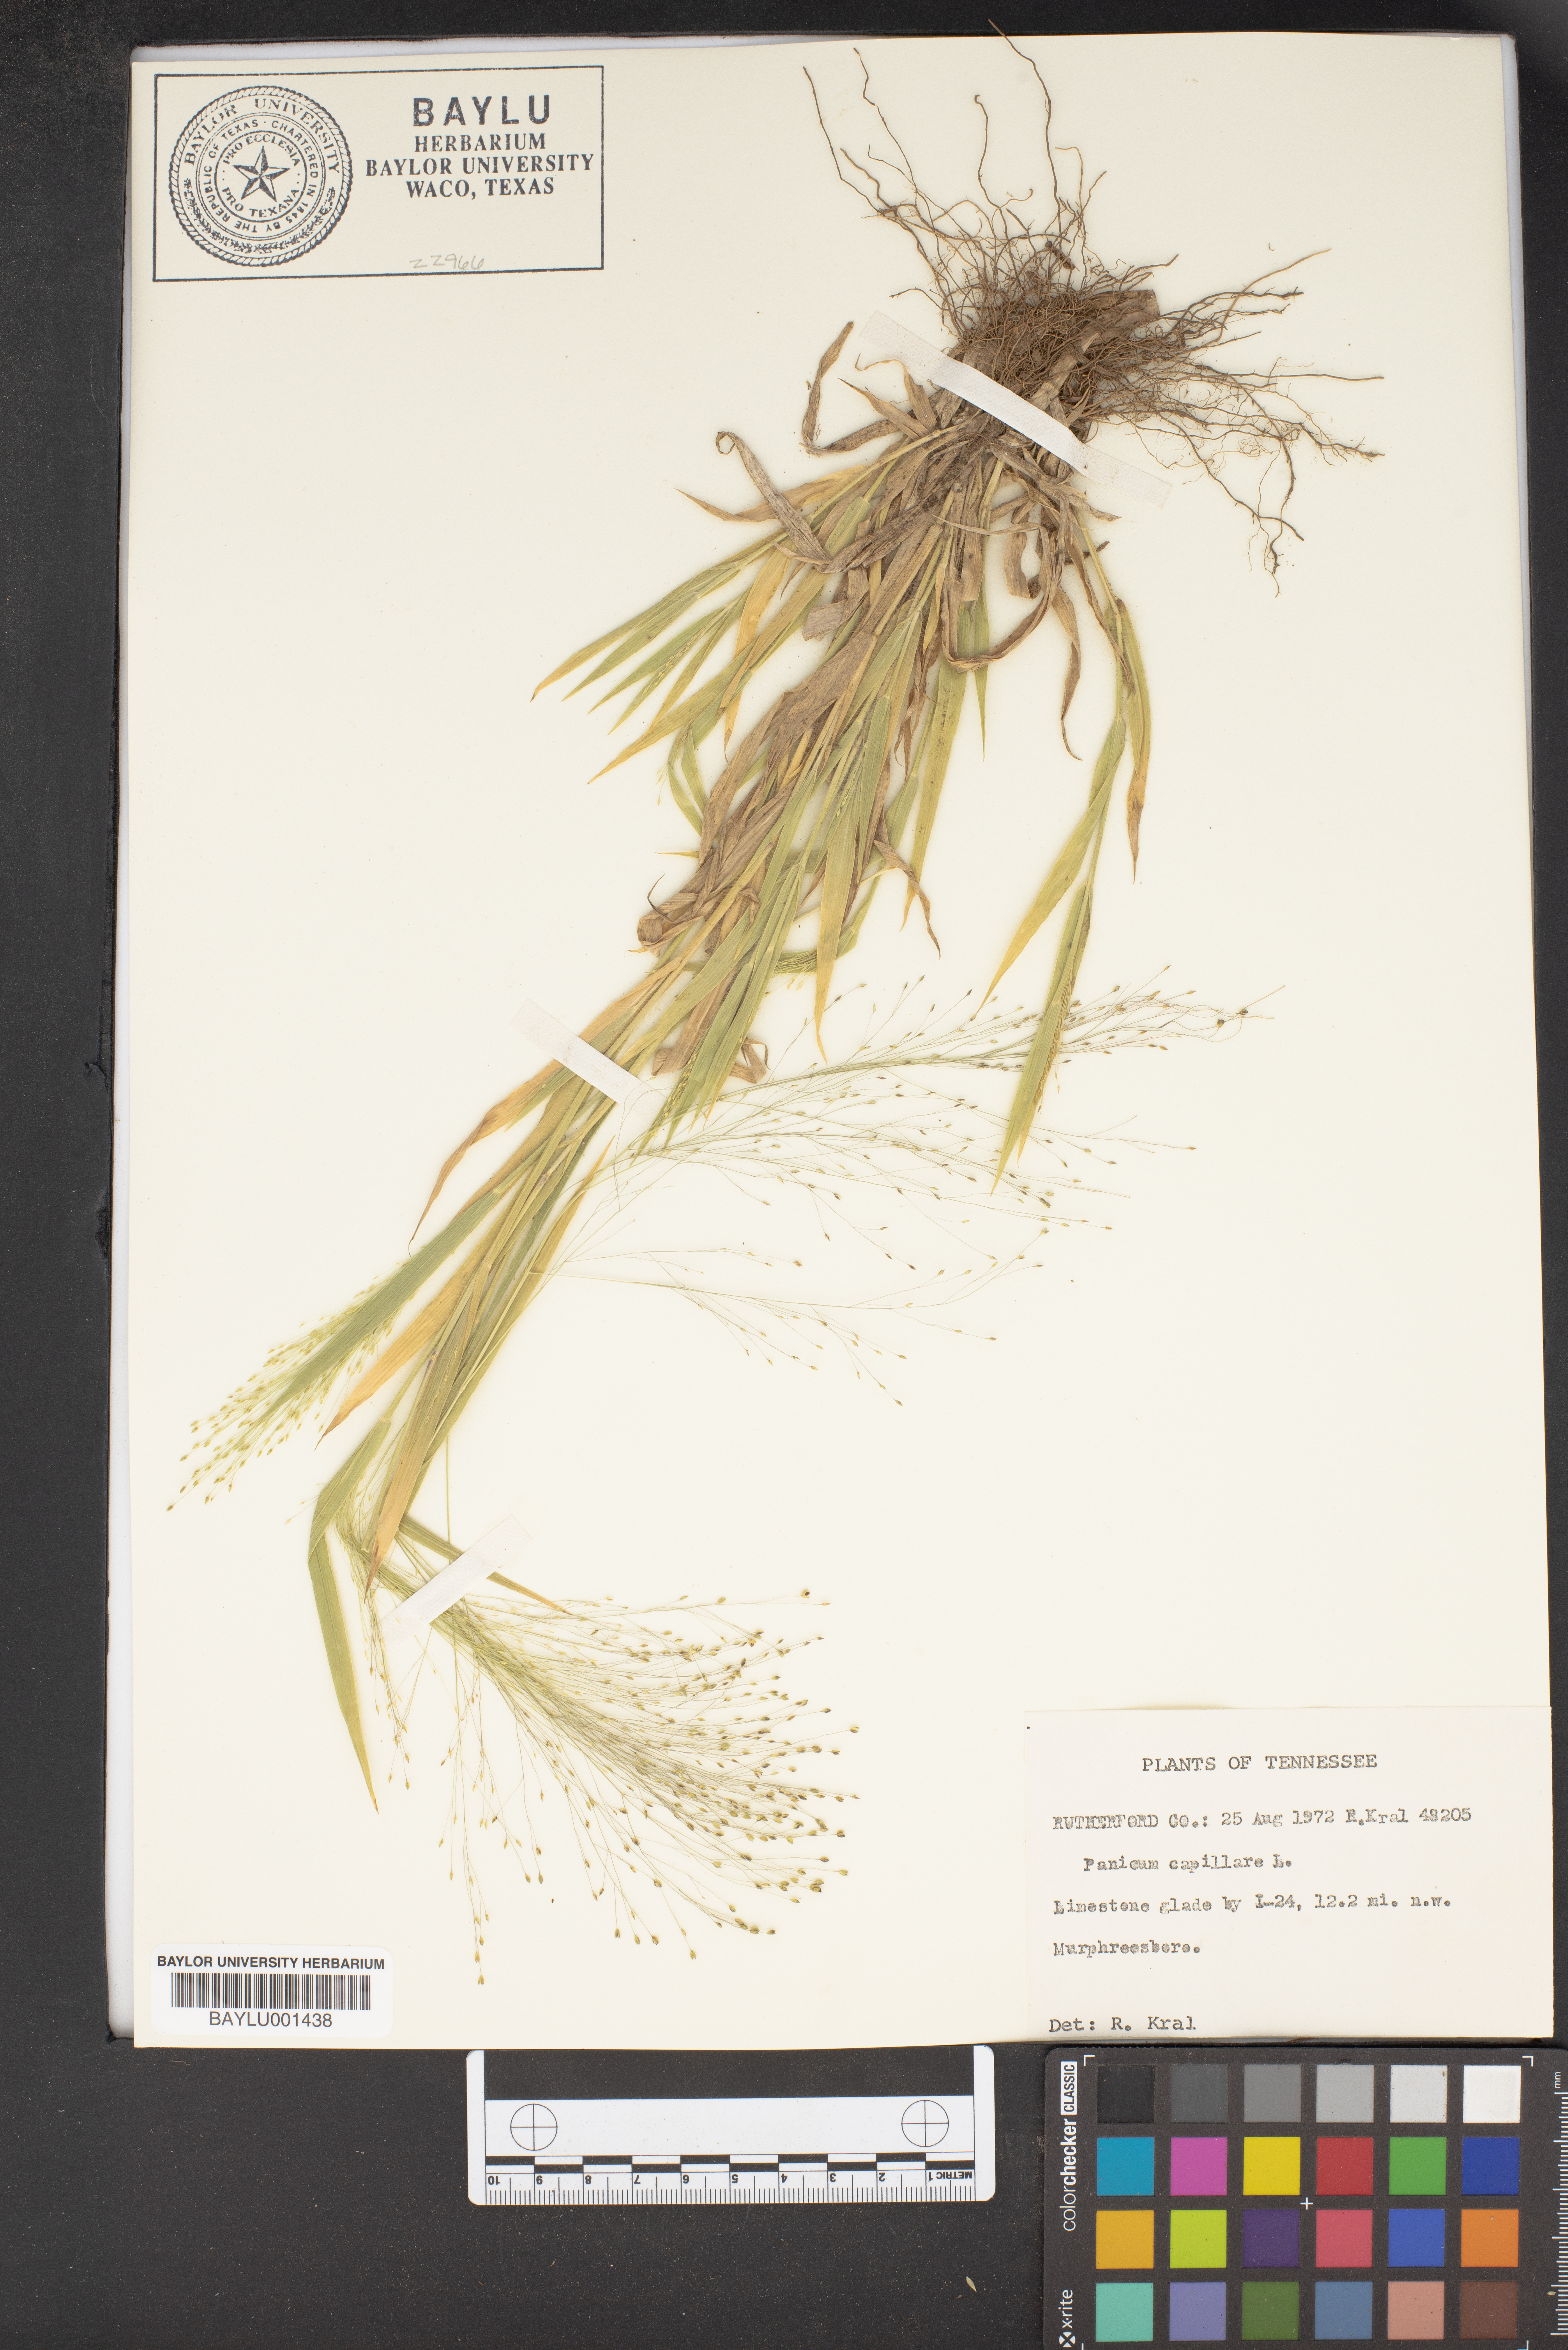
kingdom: Plantae
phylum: Tracheophyta
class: Liliopsida
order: Poales
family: Poaceae
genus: Panicum
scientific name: Panicum capillare
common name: Witch-grass
